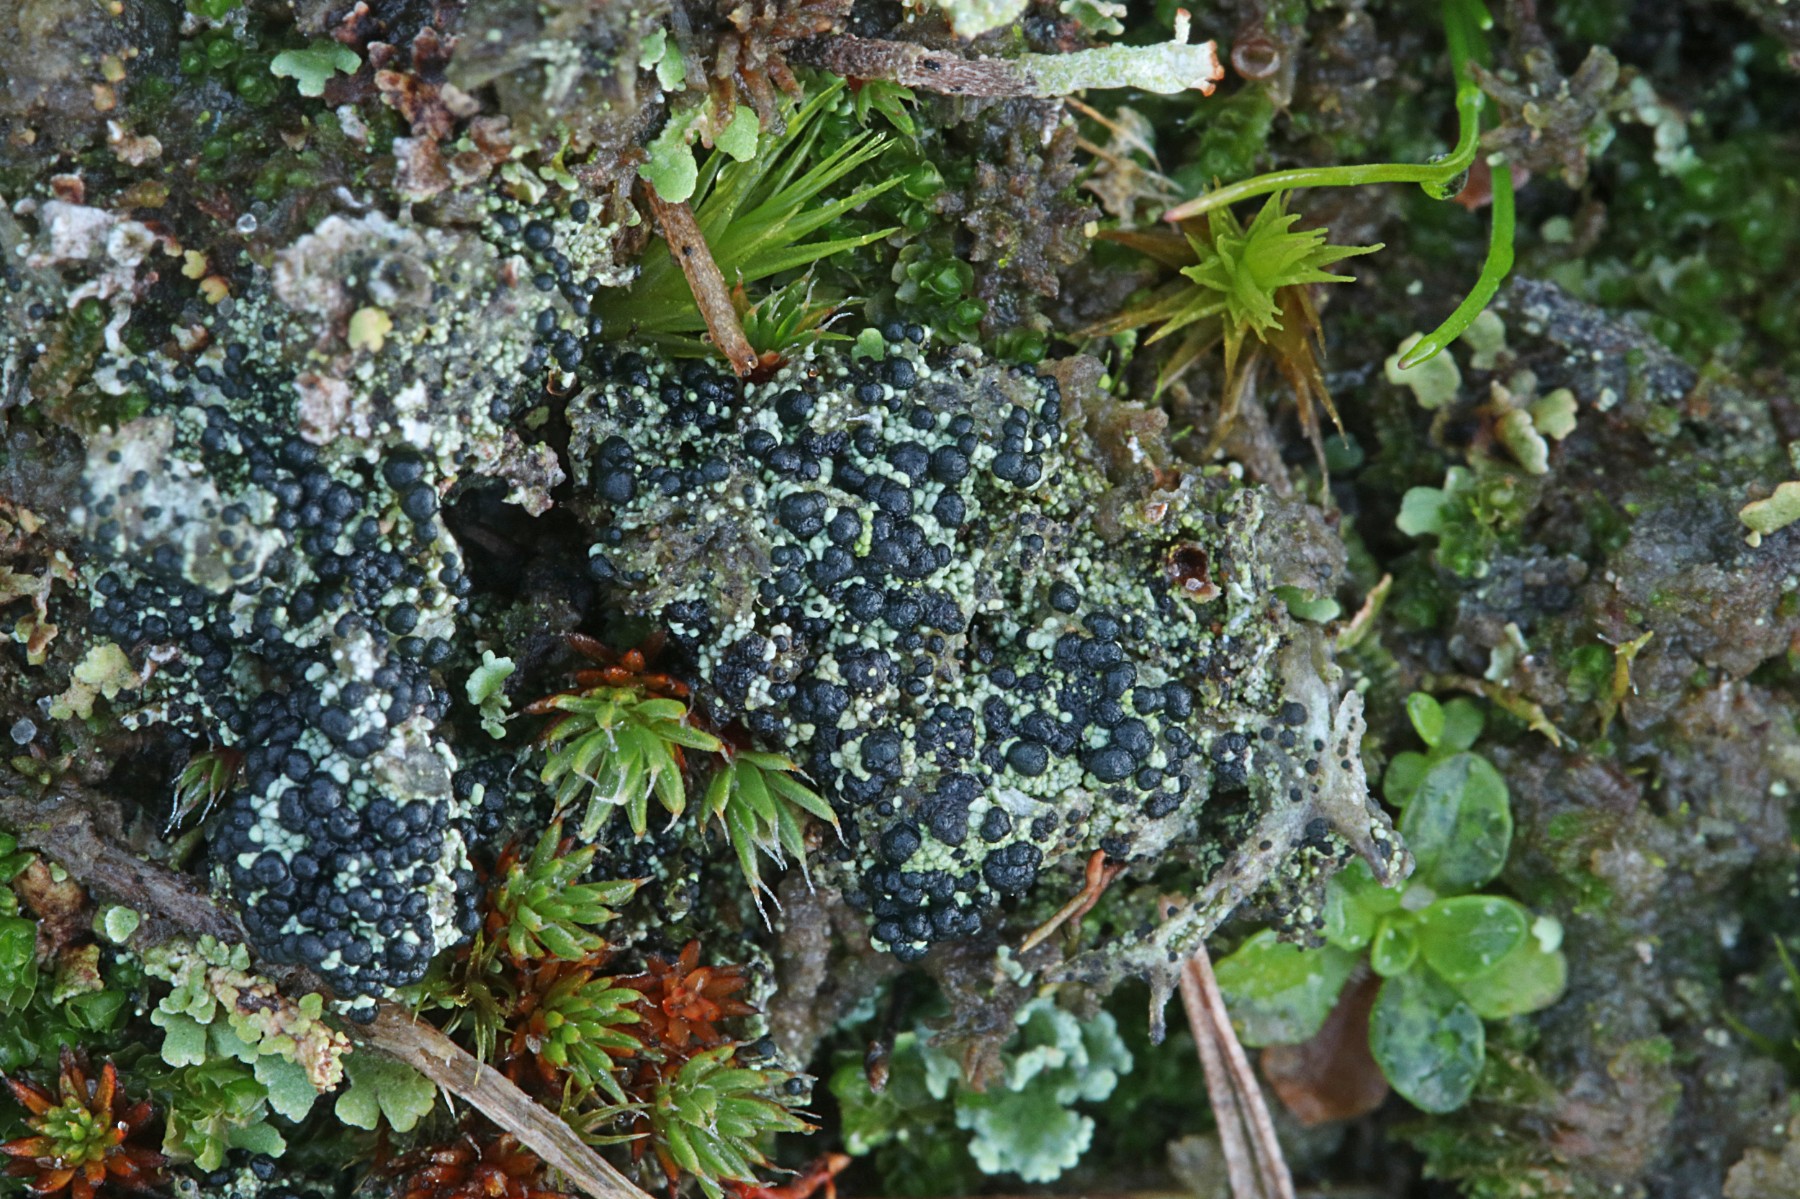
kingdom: Fungi
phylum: Ascomycota
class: Lecanoromycetes
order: Lecanorales
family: Byssolomataceae
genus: Micarea
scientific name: Micarea lignaria
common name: tørve-knaplav
